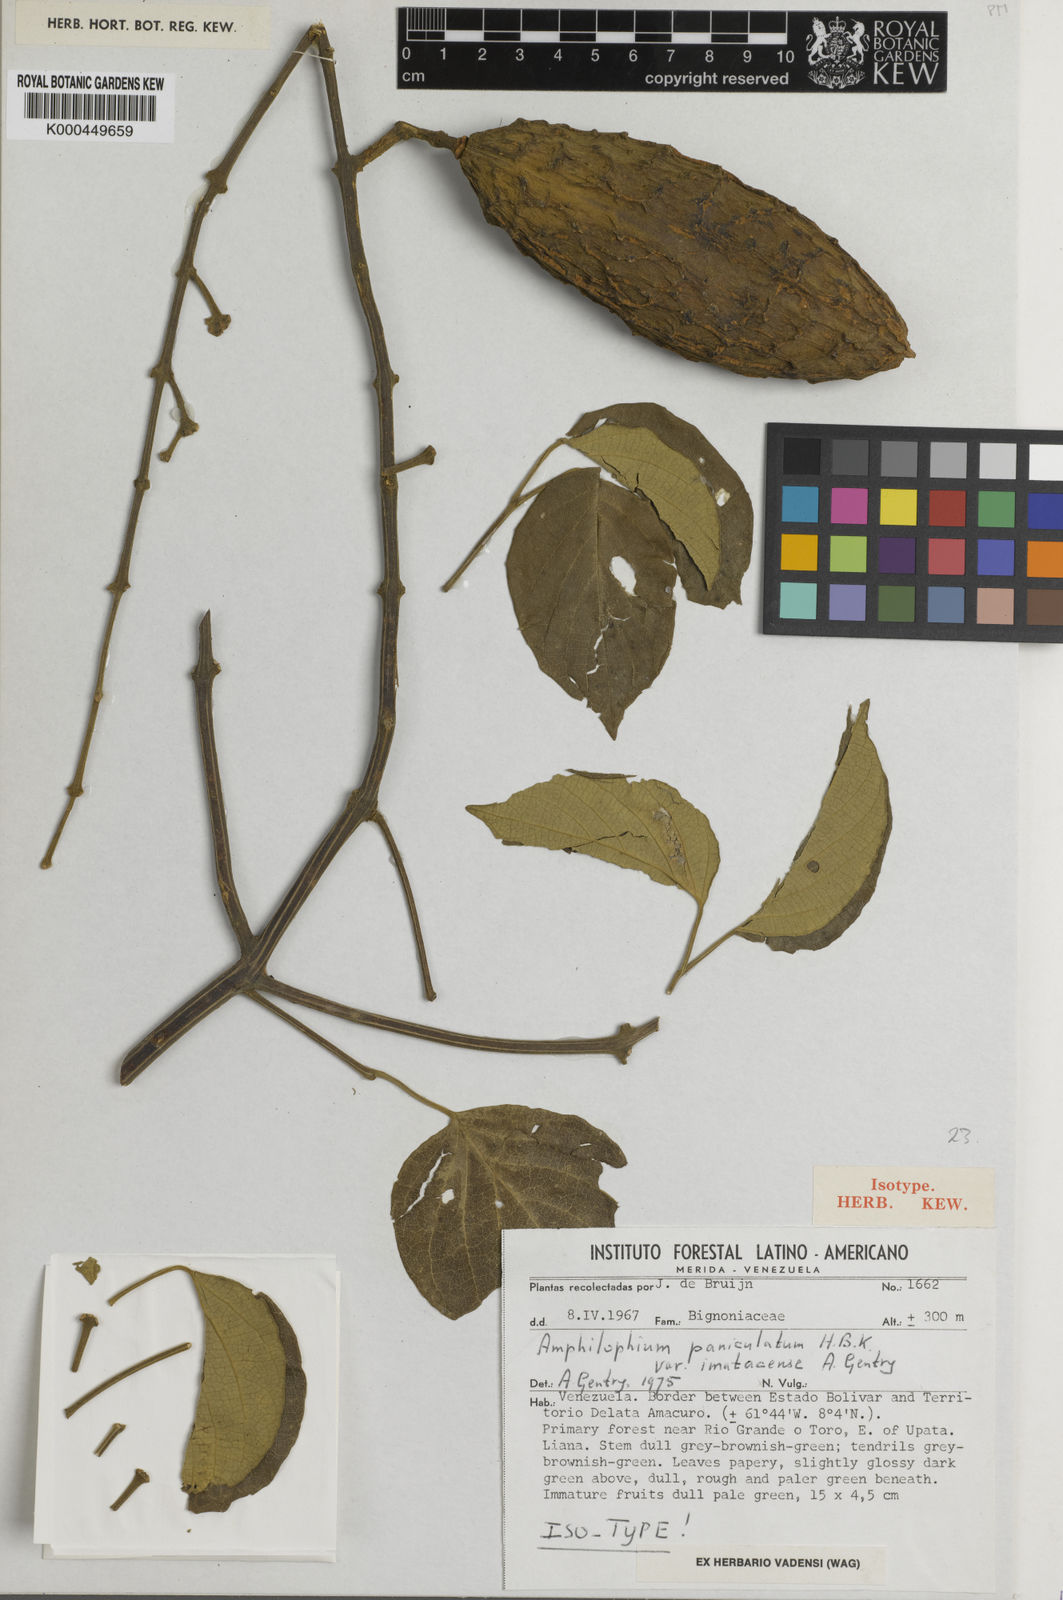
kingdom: Plantae
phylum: Tracheophyta
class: Magnoliopsida
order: Lamiales
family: Bignoniaceae
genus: Amphilophium
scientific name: Amphilophium paniculatum
